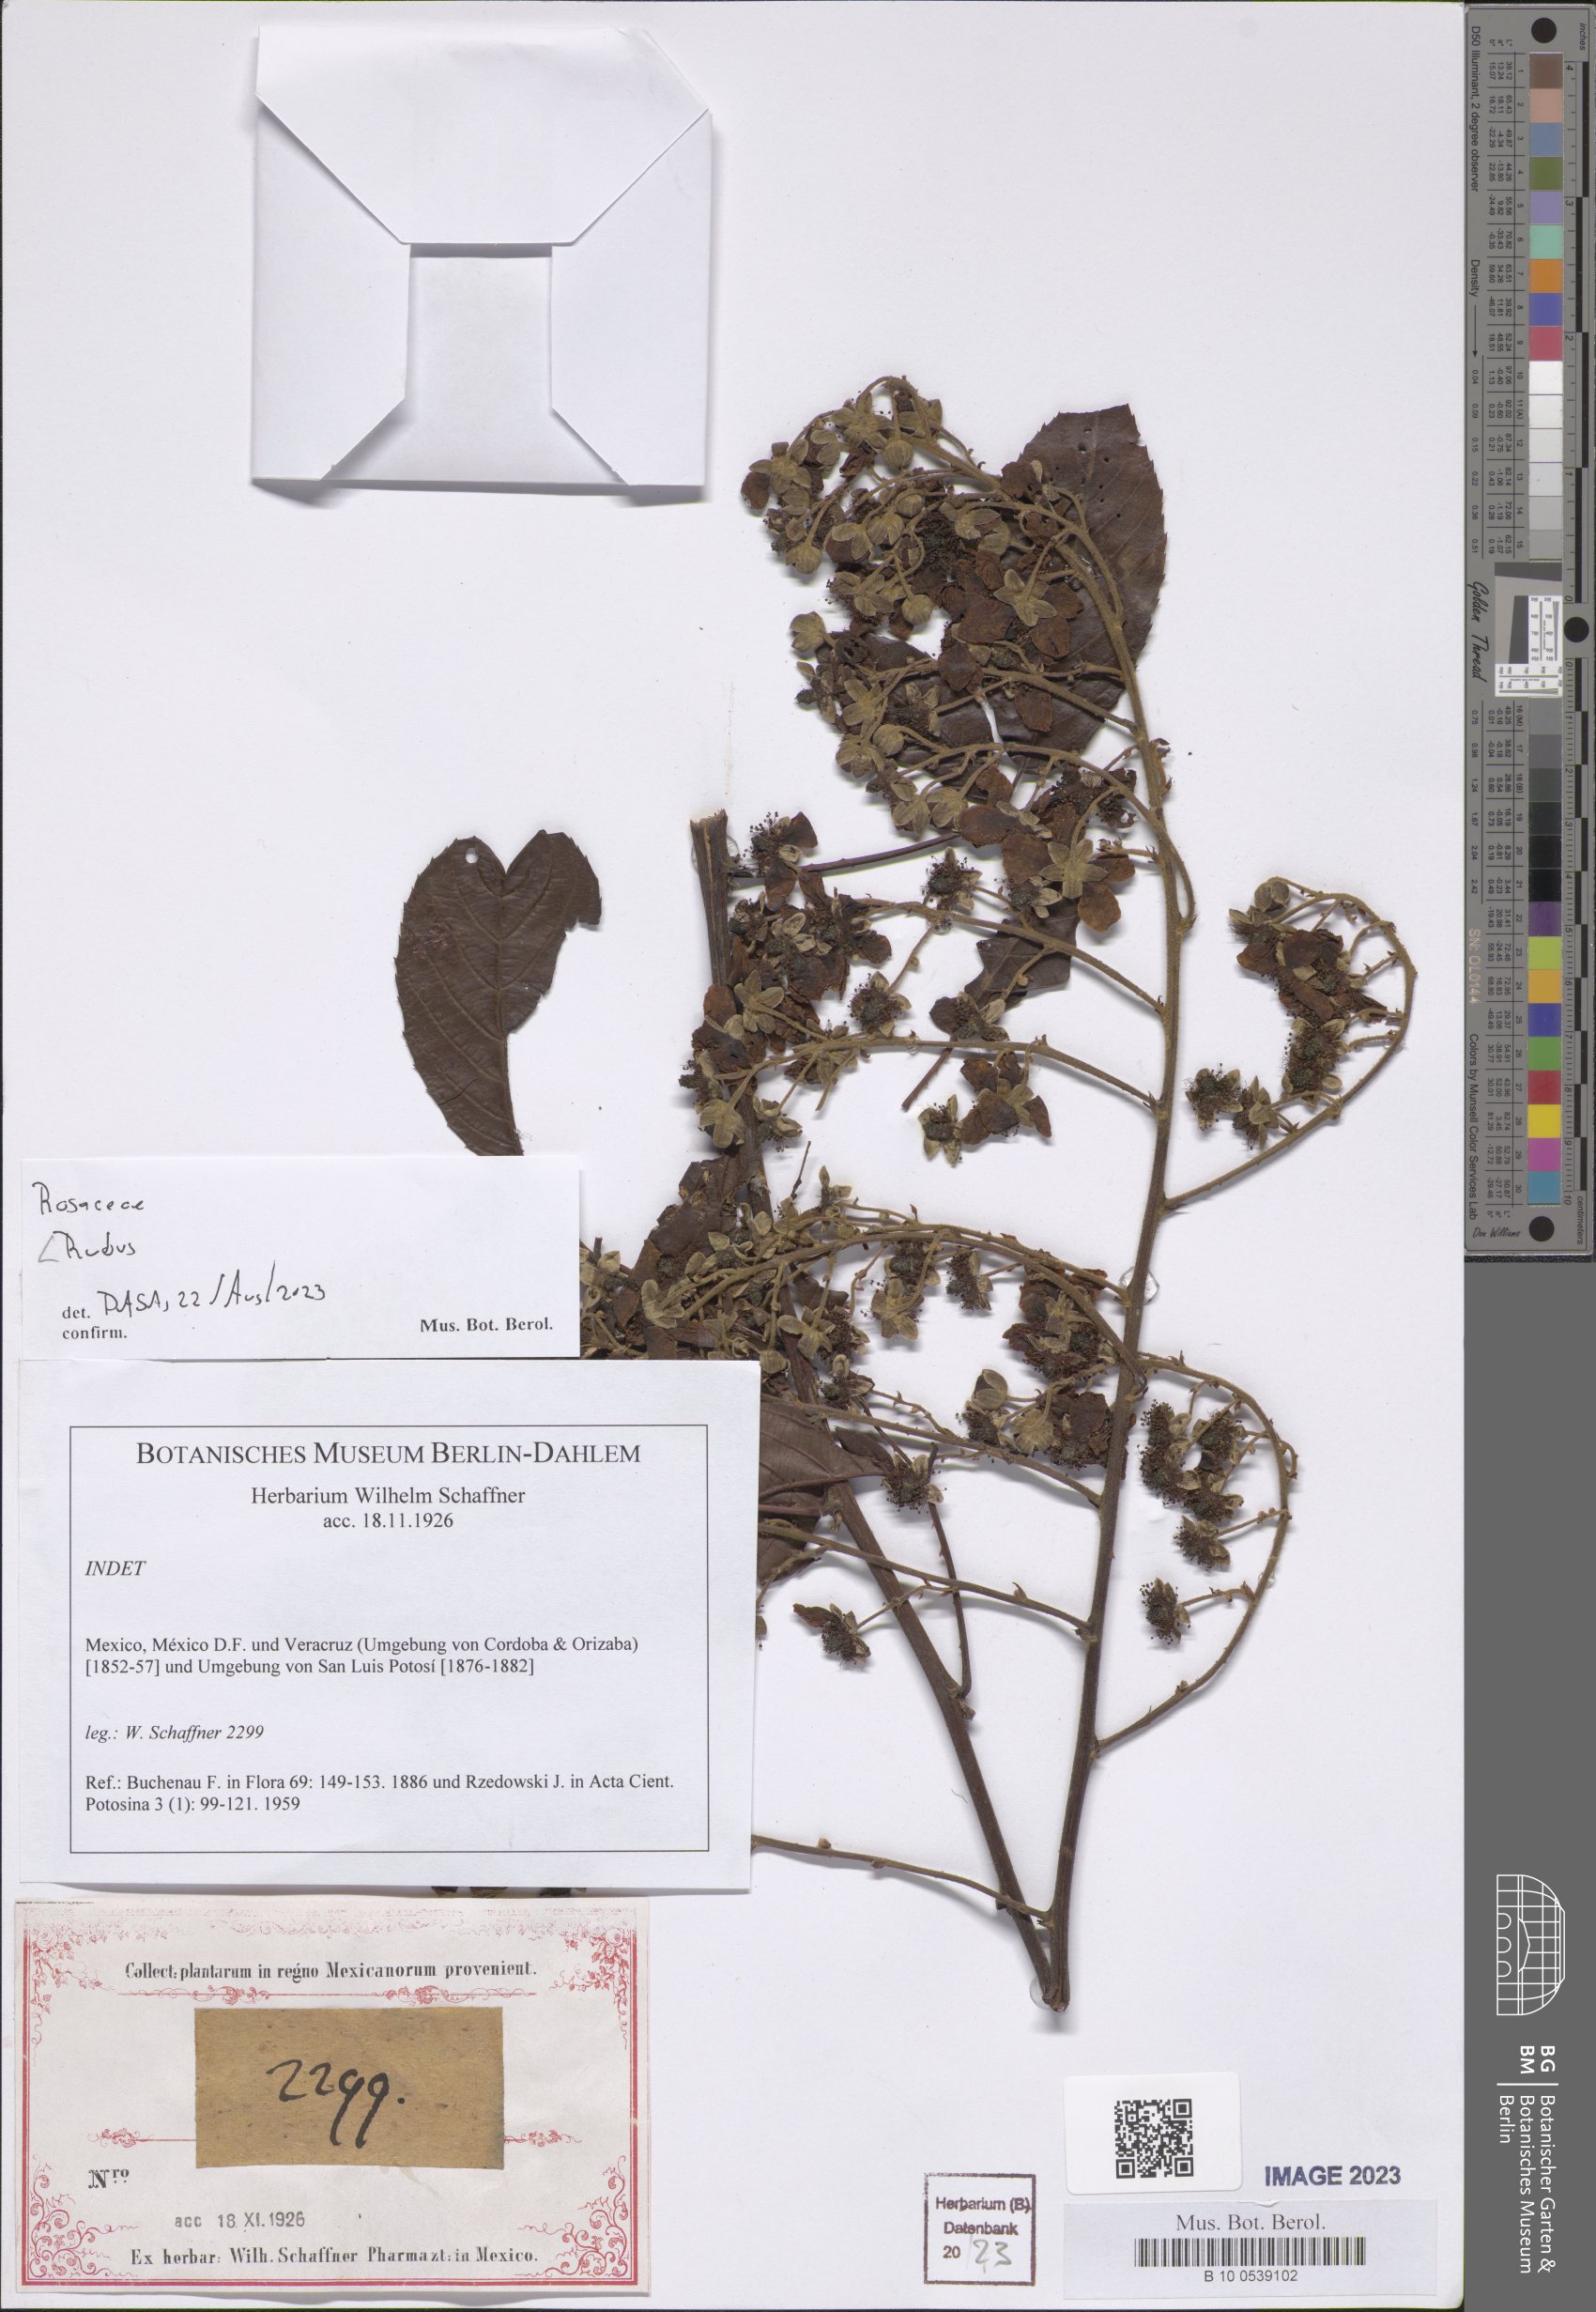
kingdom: Plantae
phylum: Tracheophyta
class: Magnoliopsida
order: Rosales
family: Rosaceae
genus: Rubus
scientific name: Rubus
